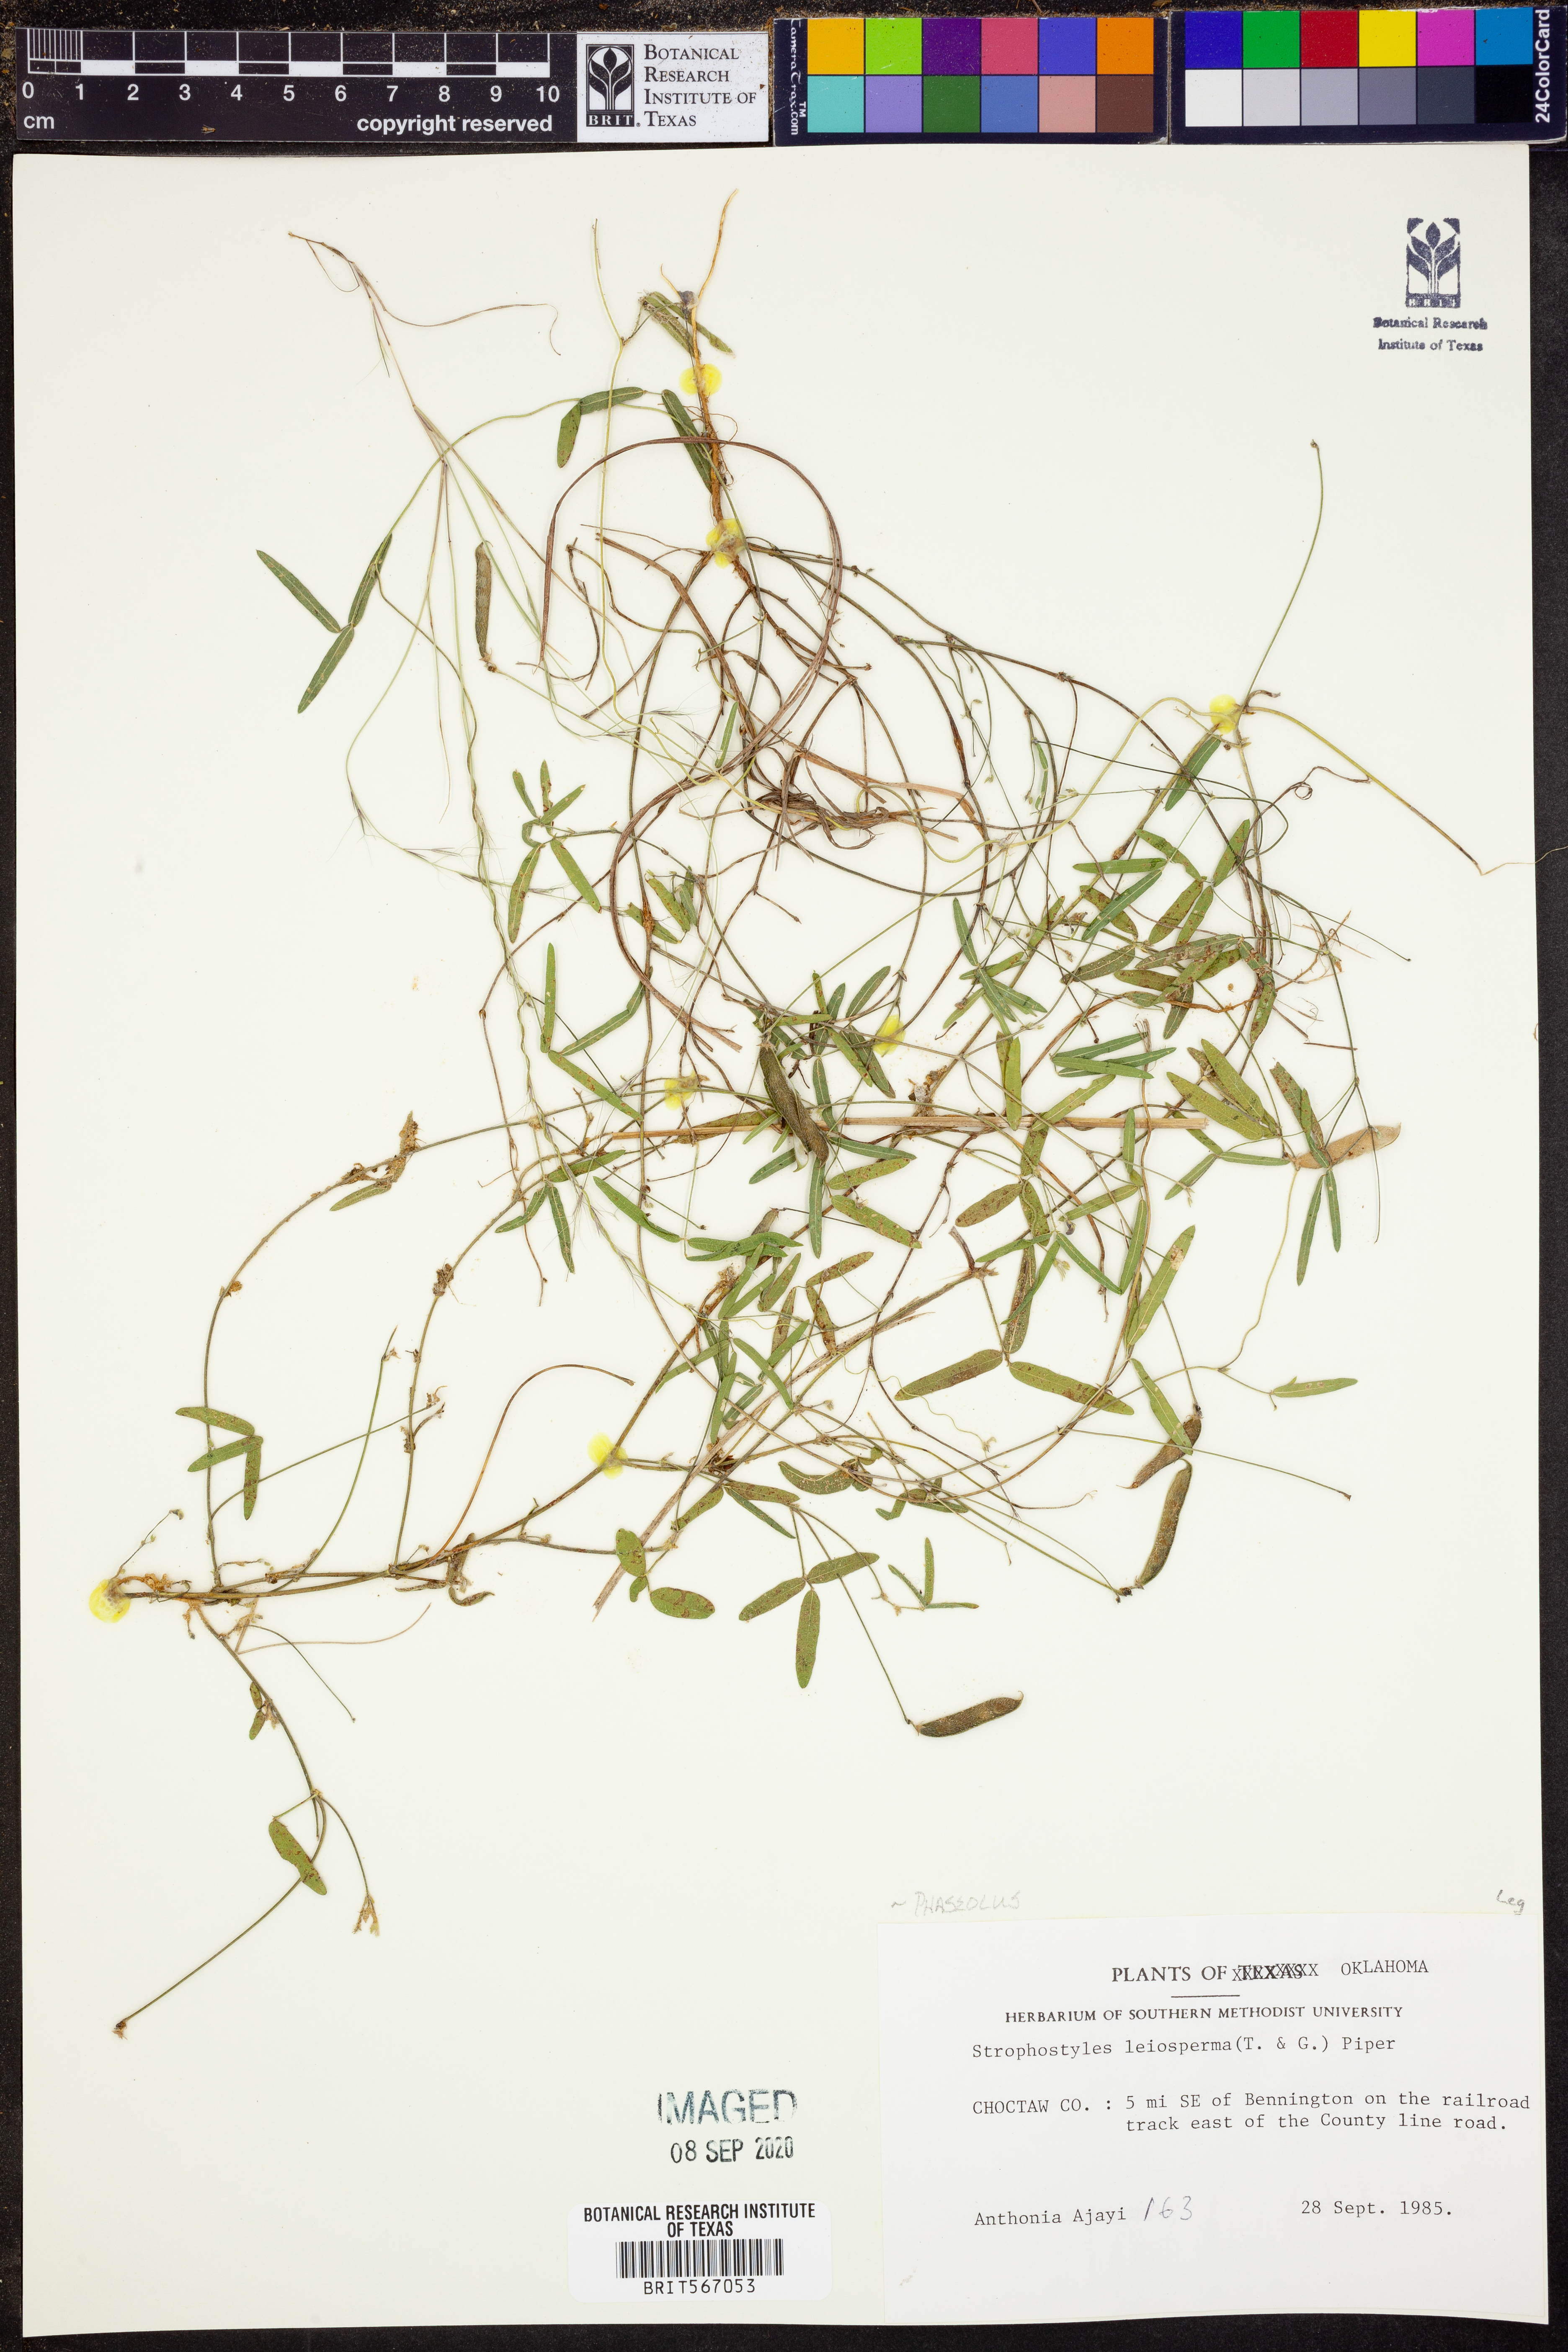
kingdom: Plantae
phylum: Tracheophyta
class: Magnoliopsida
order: Fabales
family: Fabaceae
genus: Strophostyles
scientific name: Strophostyles leiosperma
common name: Smooth-seed wild bean
